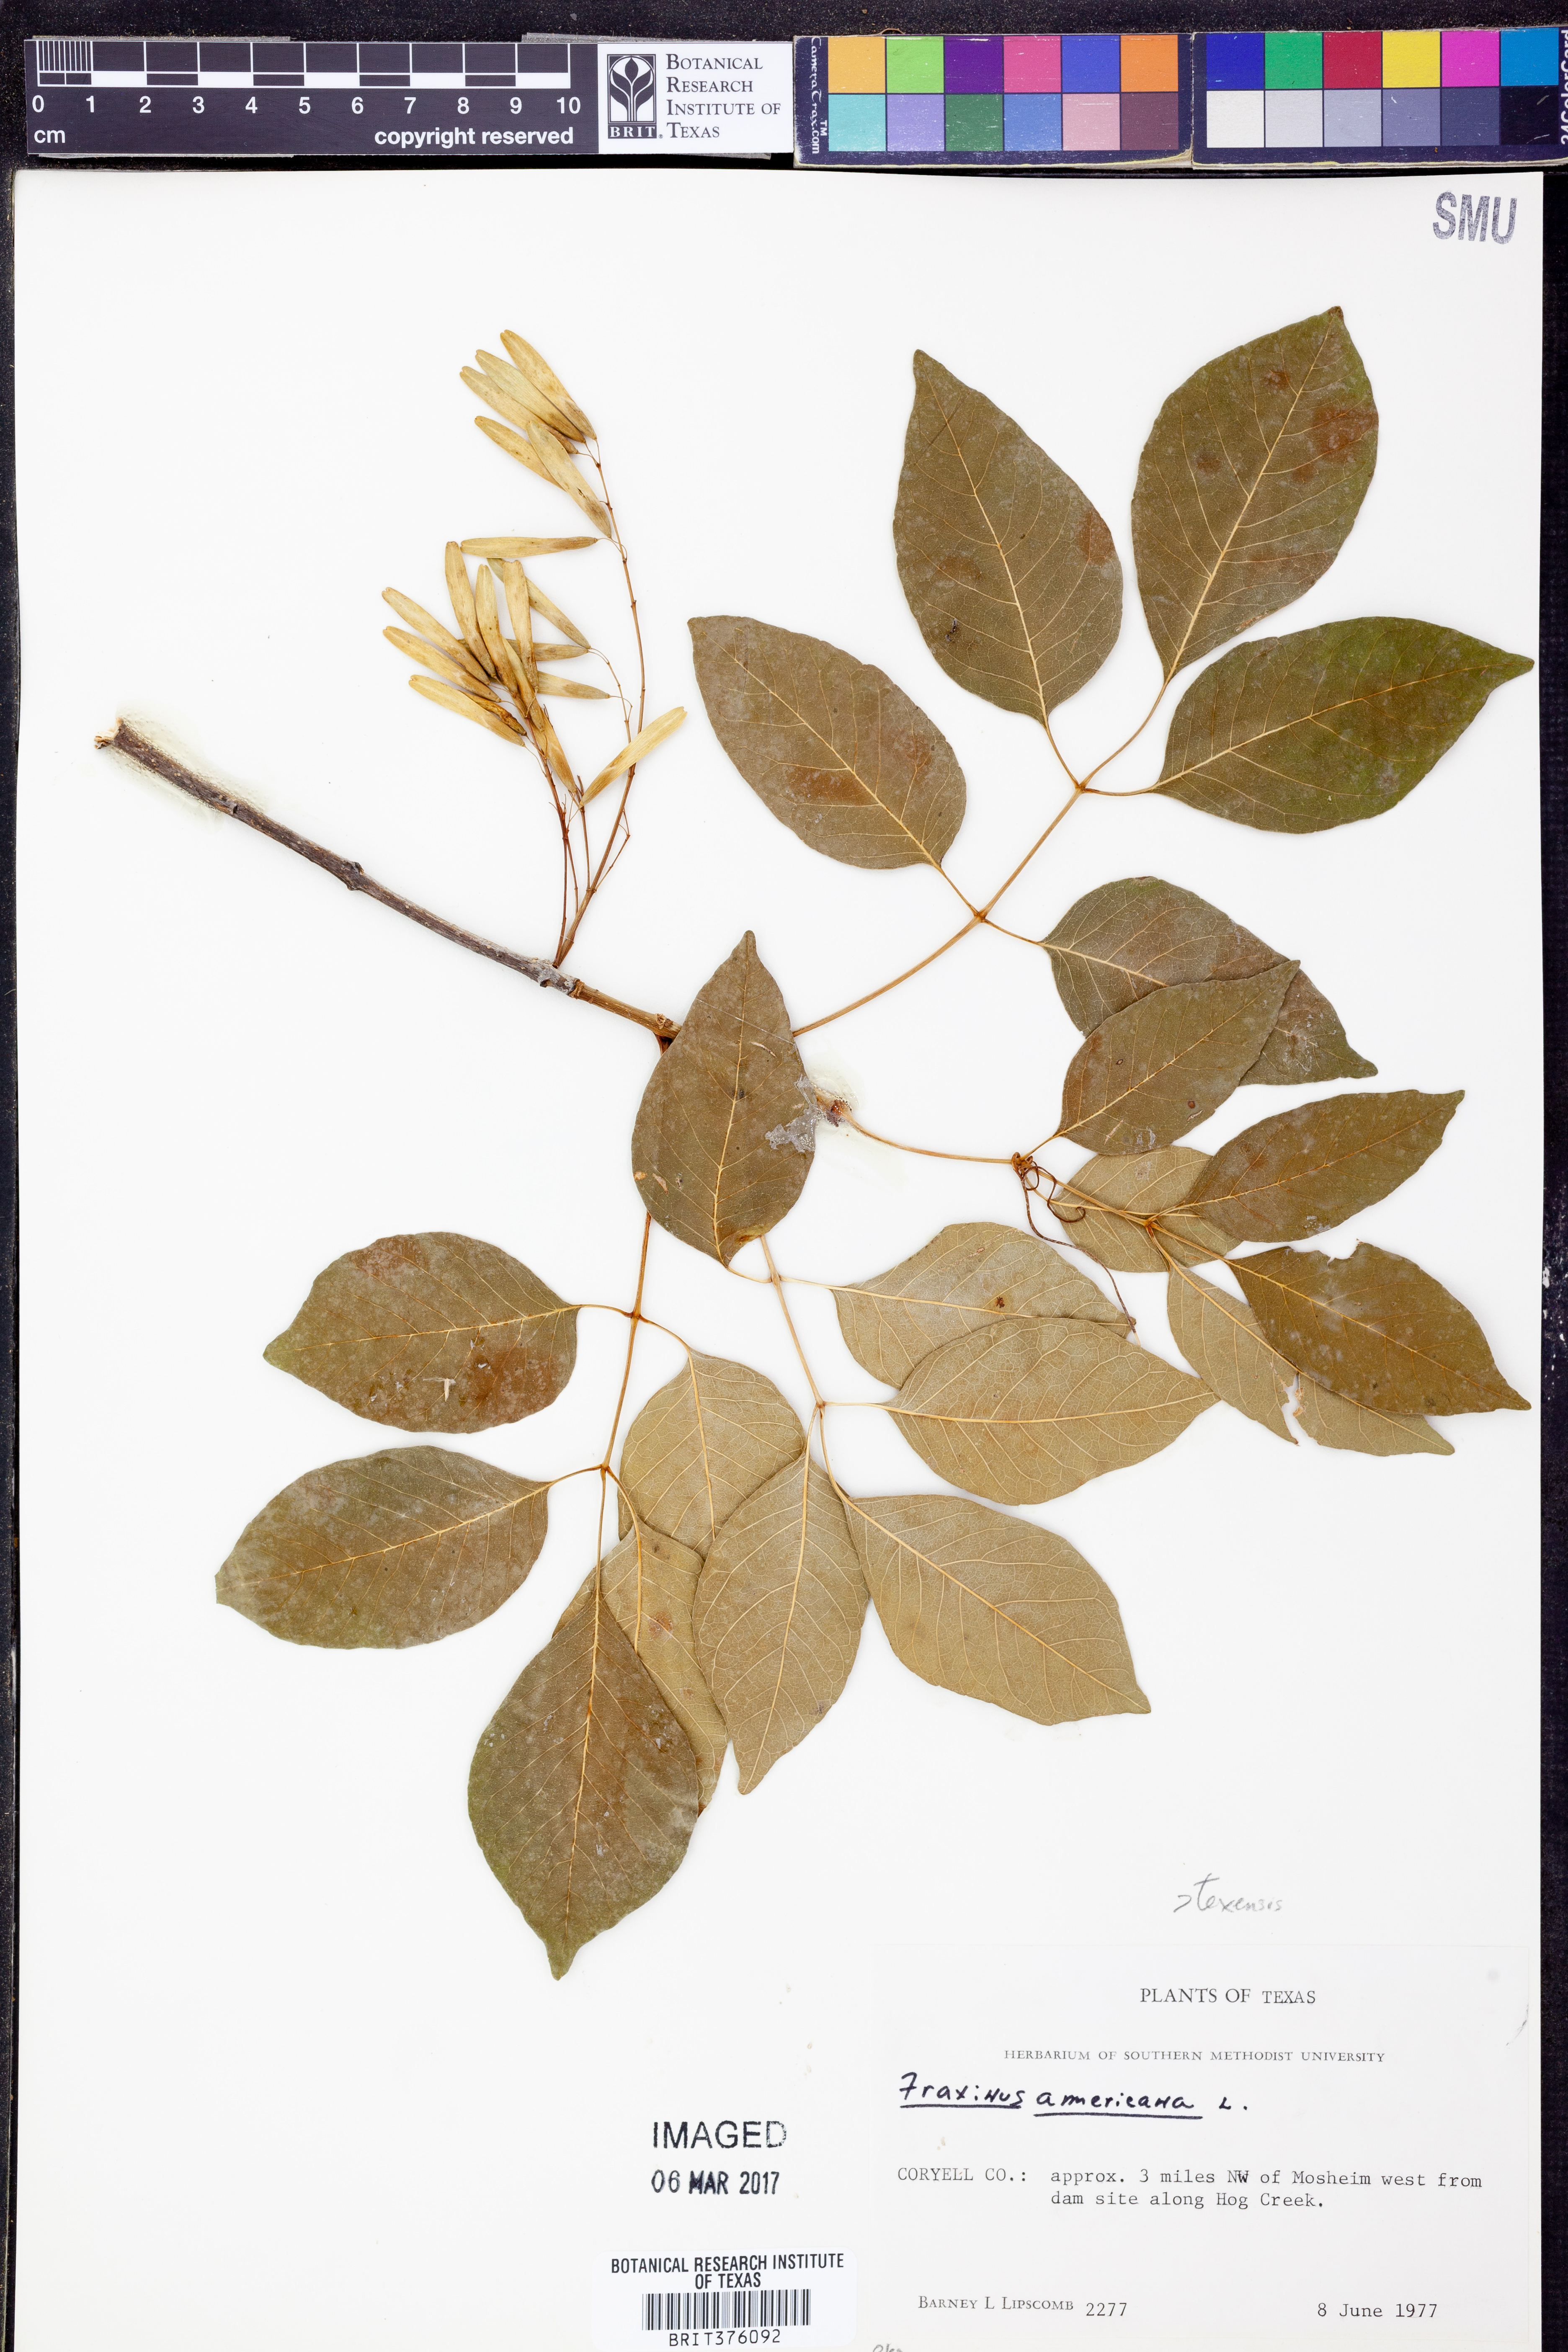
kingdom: Plantae
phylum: Tracheophyta
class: Magnoliopsida
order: Lamiales
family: Oleaceae
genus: Fraxinus
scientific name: Fraxinus americana
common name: White ash
